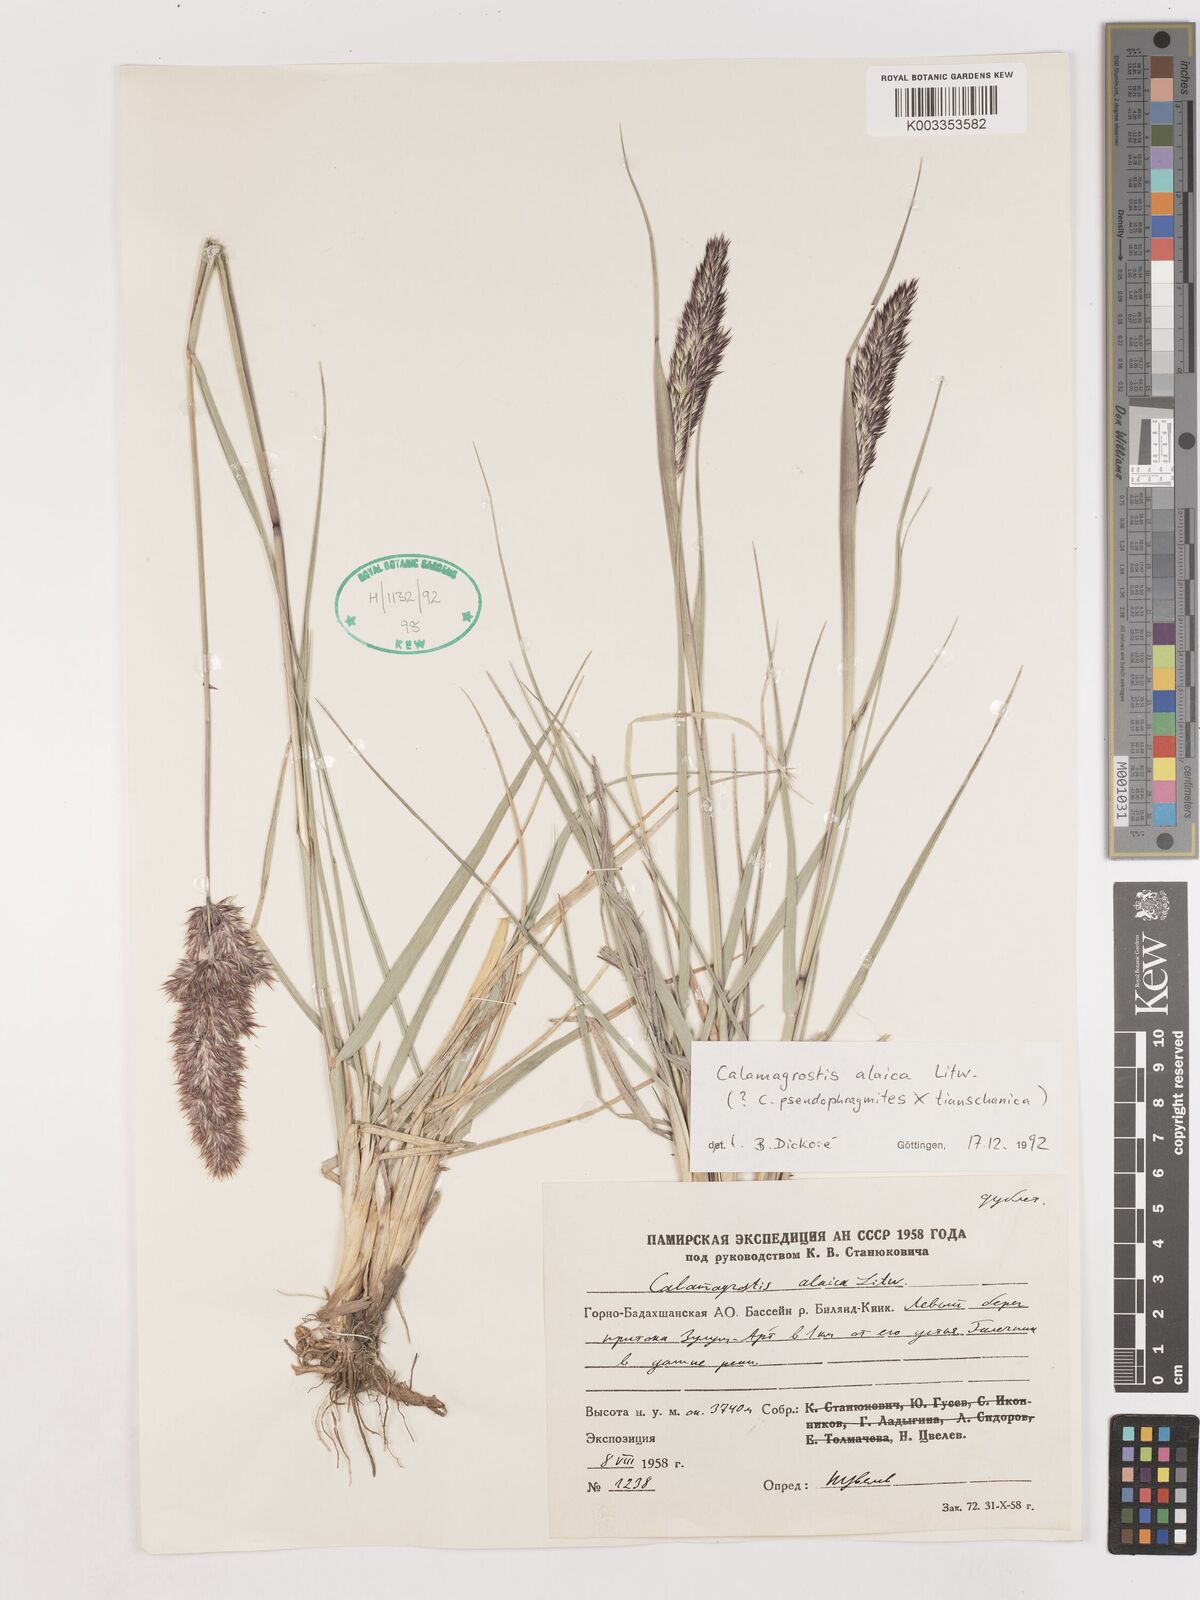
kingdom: Plantae
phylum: Tracheophyta
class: Liliopsida
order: Poales
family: Poaceae
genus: Calamagrostis
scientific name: Calamagrostis
